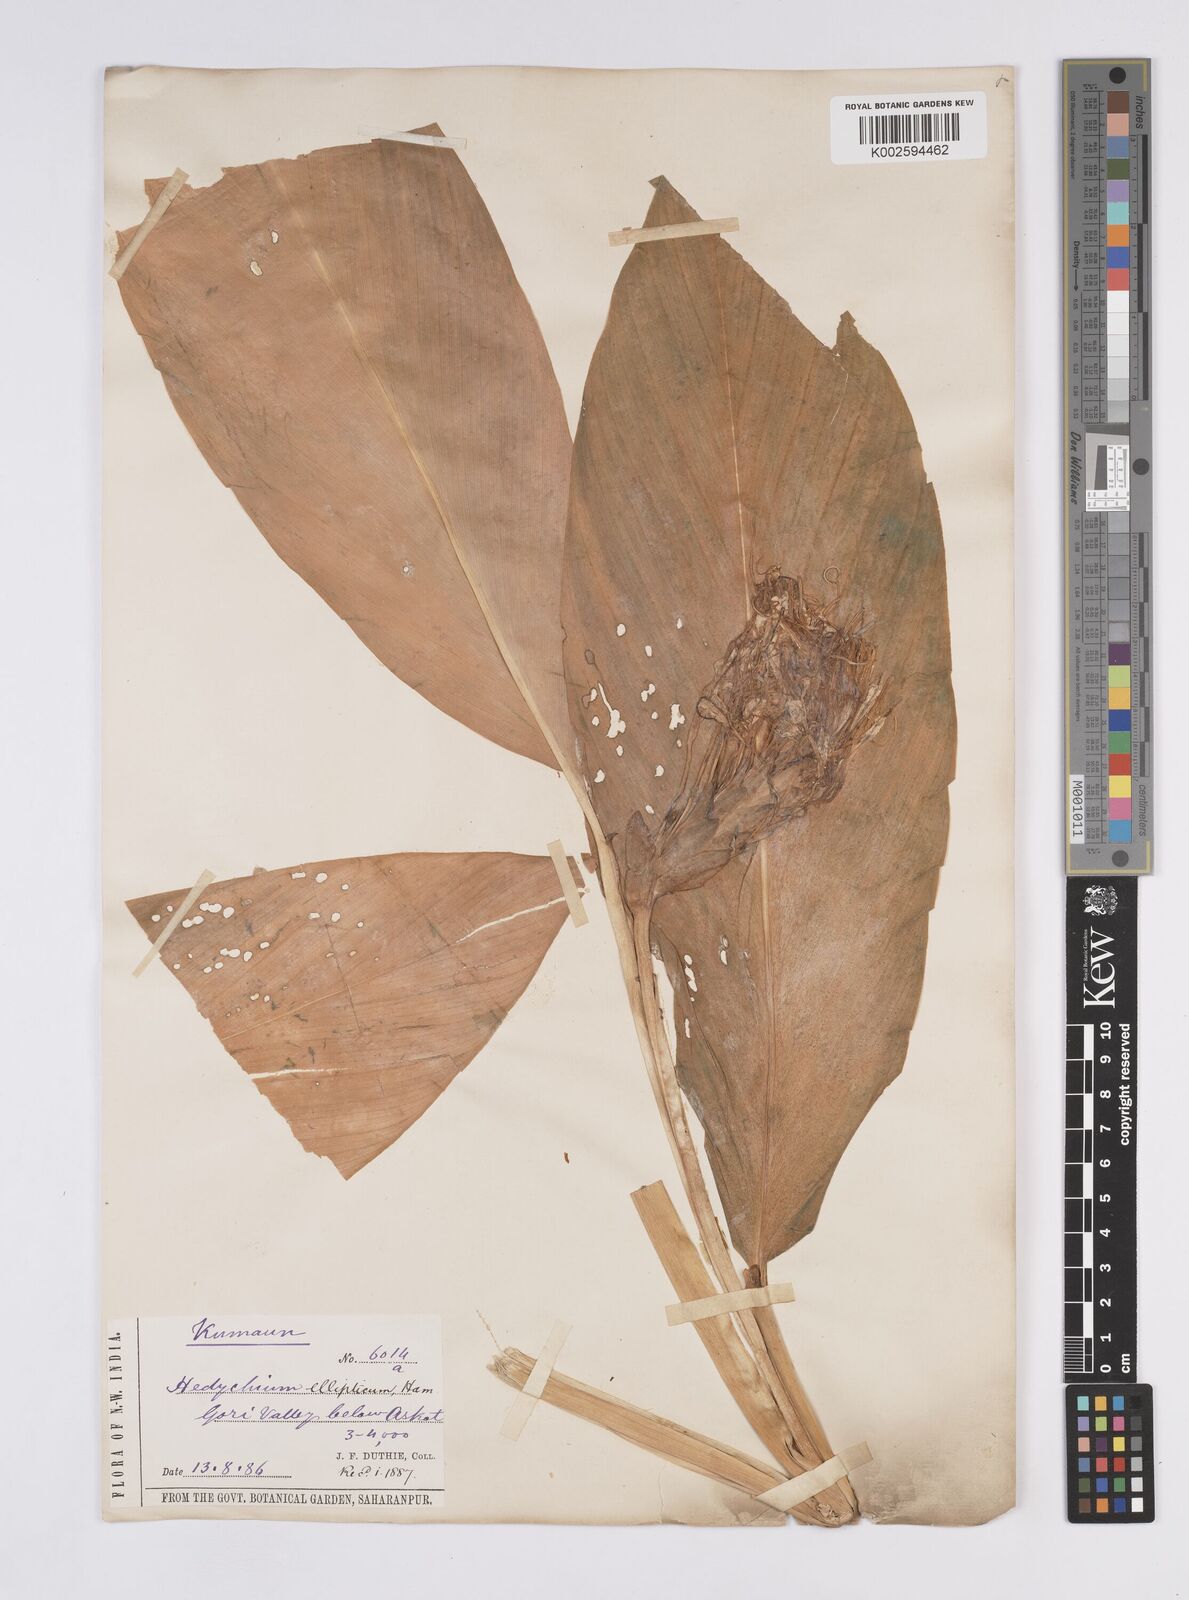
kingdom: Plantae
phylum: Tracheophyta
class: Liliopsida
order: Zingiberales
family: Zingiberaceae
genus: Hedychium
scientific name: Hedychium ellipticum
